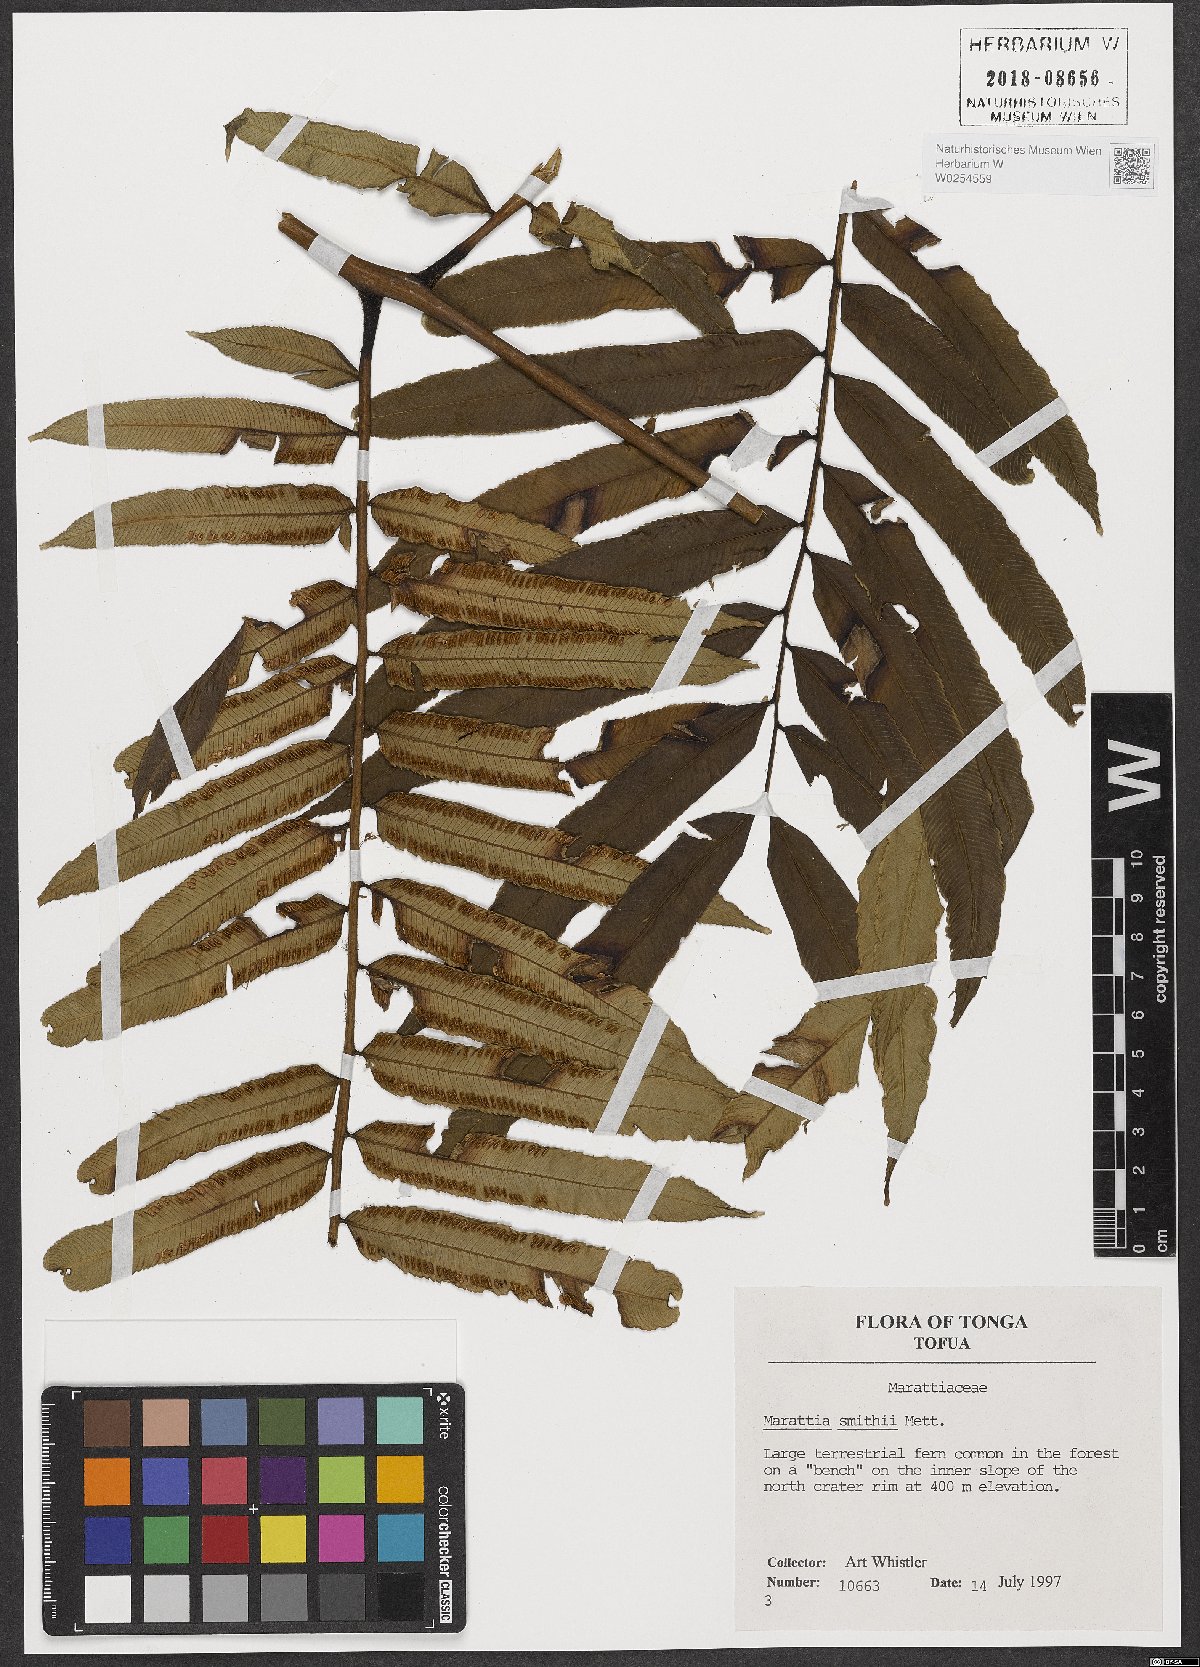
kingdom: Plantae
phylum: Tracheophyta
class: Polypodiopsida
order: Marattiales
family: Marattiaceae
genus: Ptisana
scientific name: Ptisana smithii
